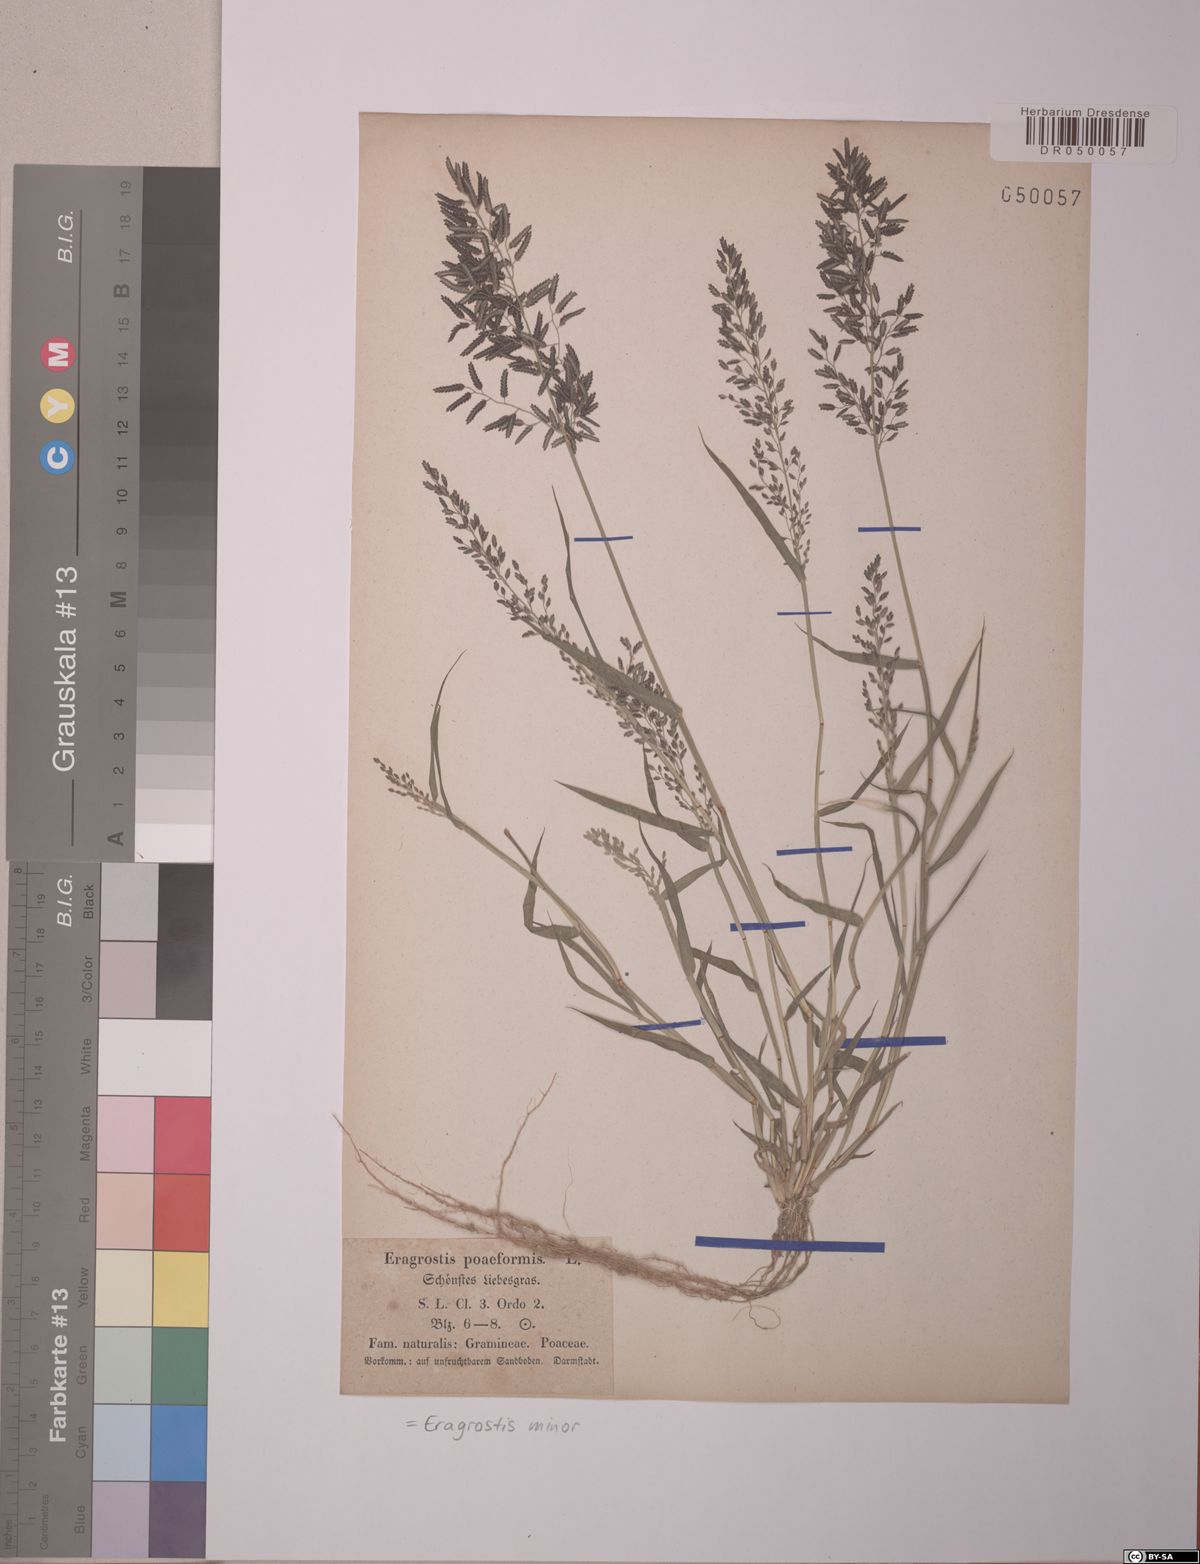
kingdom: Plantae
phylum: Tracheophyta
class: Liliopsida
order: Poales
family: Poaceae
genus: Eragrostis
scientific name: Eragrostis minor
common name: Small love-grass
